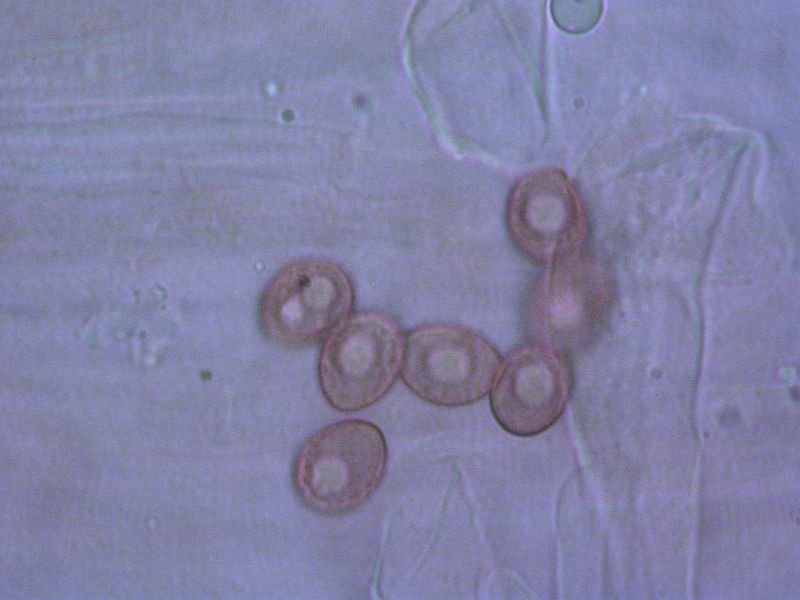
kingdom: Fungi
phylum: Basidiomycota
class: Agaricomycetes
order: Agaricales
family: Hymenogastraceae
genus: Galerina
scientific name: Galerina vittiformis
